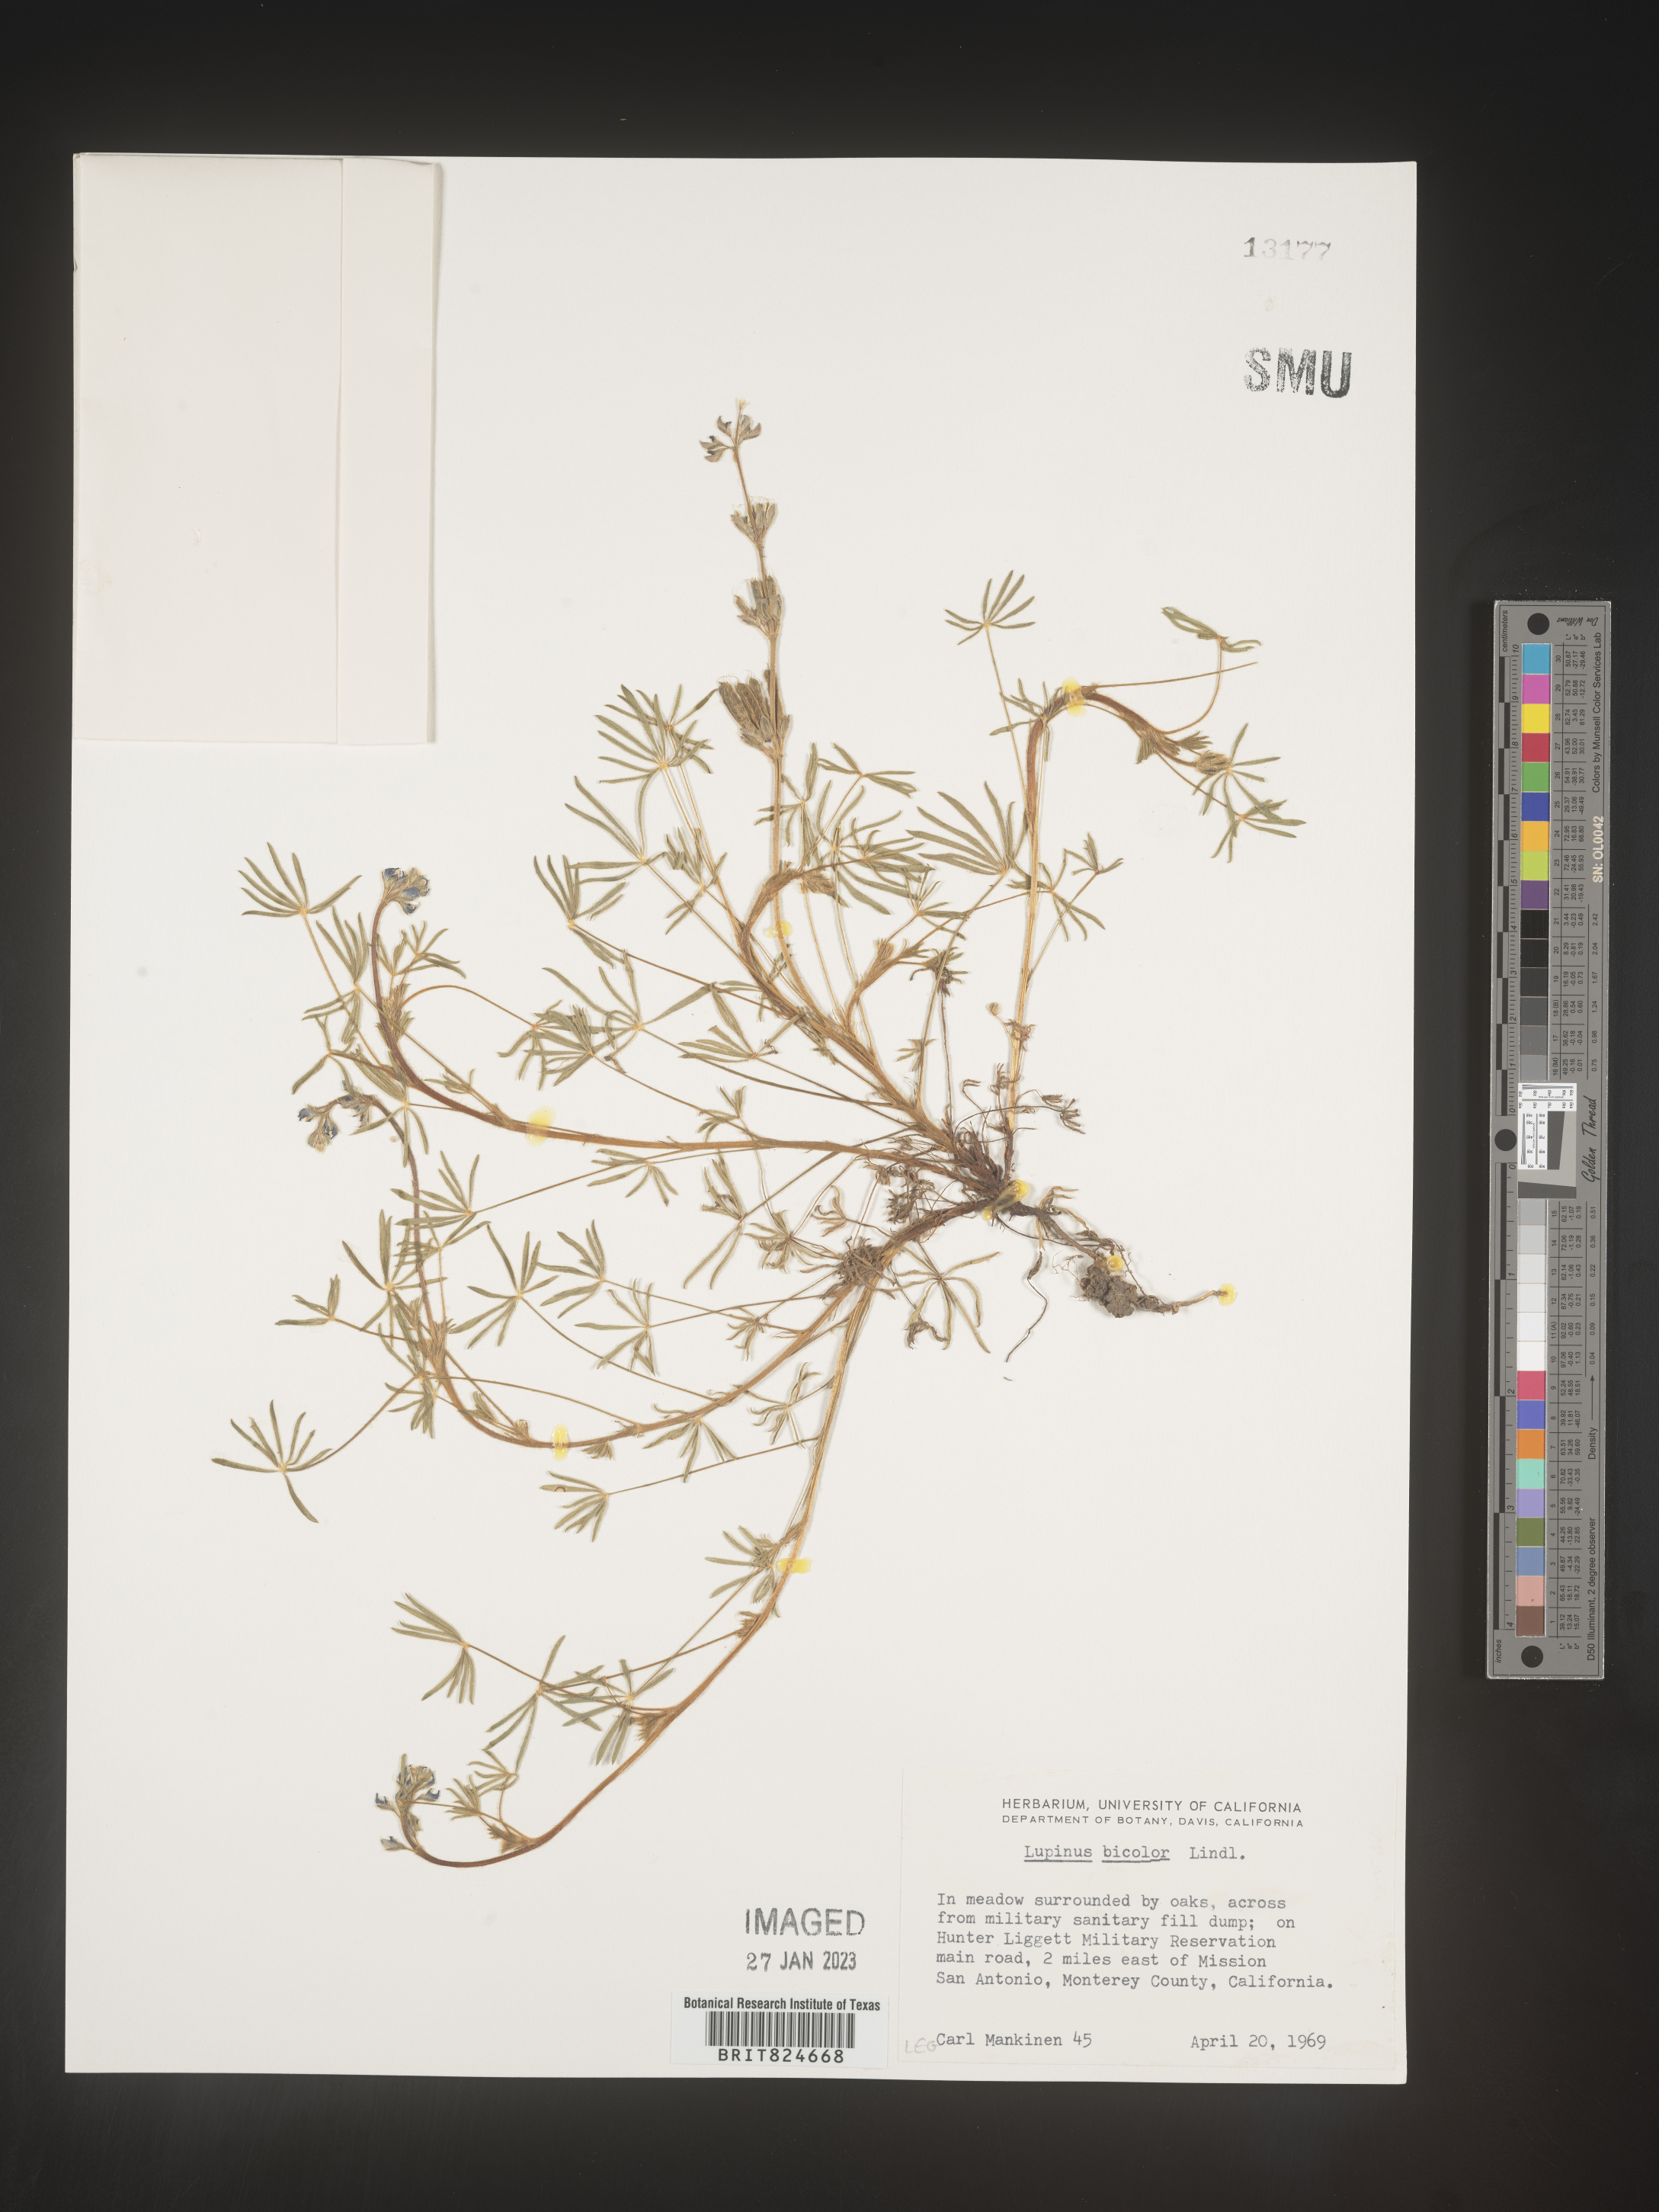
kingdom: Plantae
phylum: Tracheophyta
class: Magnoliopsida
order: Fabales
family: Fabaceae
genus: Lupinus
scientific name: Lupinus bicolor
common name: Miniature lupine
